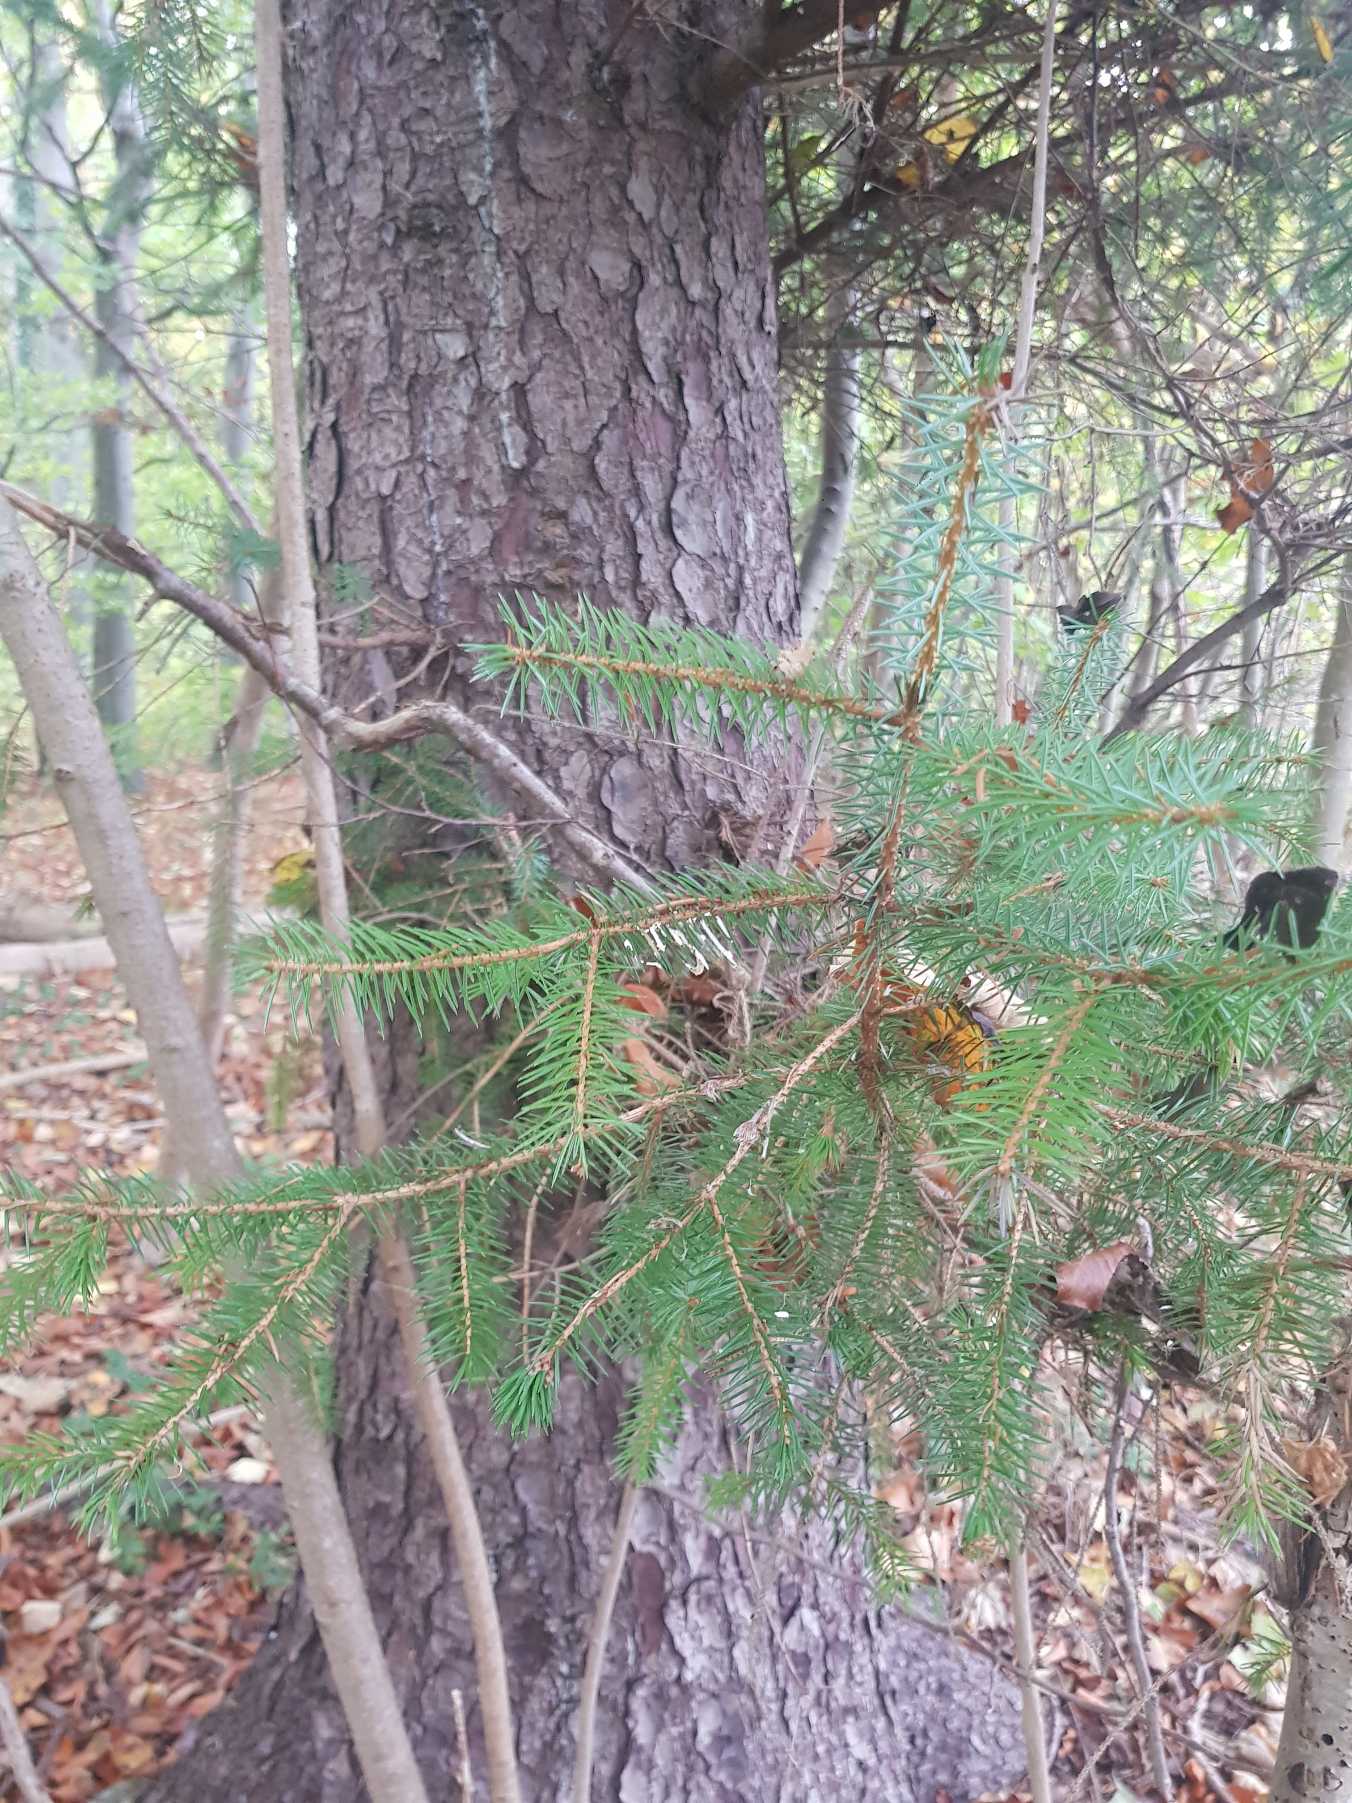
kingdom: Plantae
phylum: Tracheophyta
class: Pinopsida
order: Pinales
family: Pinaceae
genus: Picea
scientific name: Picea abies
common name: Rød-gran
